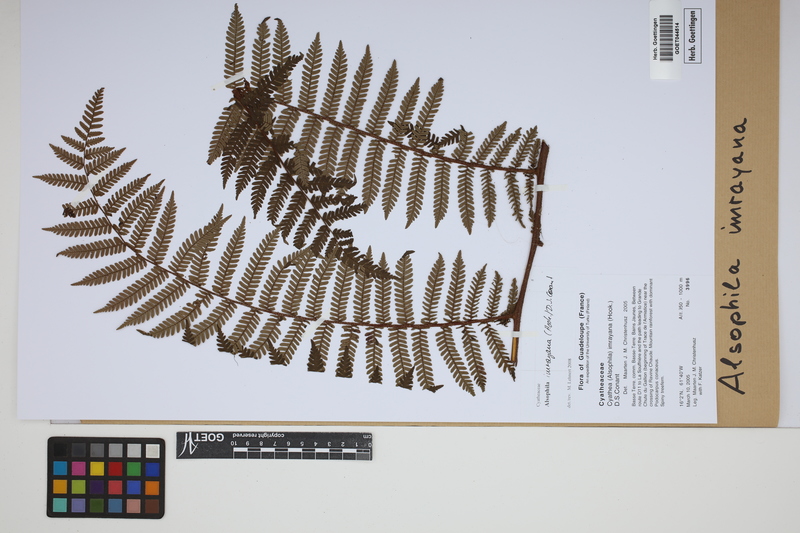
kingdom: Plantae
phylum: Tracheophyta
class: Polypodiopsida
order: Cyatheales
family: Cyatheaceae
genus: Alsophila
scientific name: Alsophila imrayana
